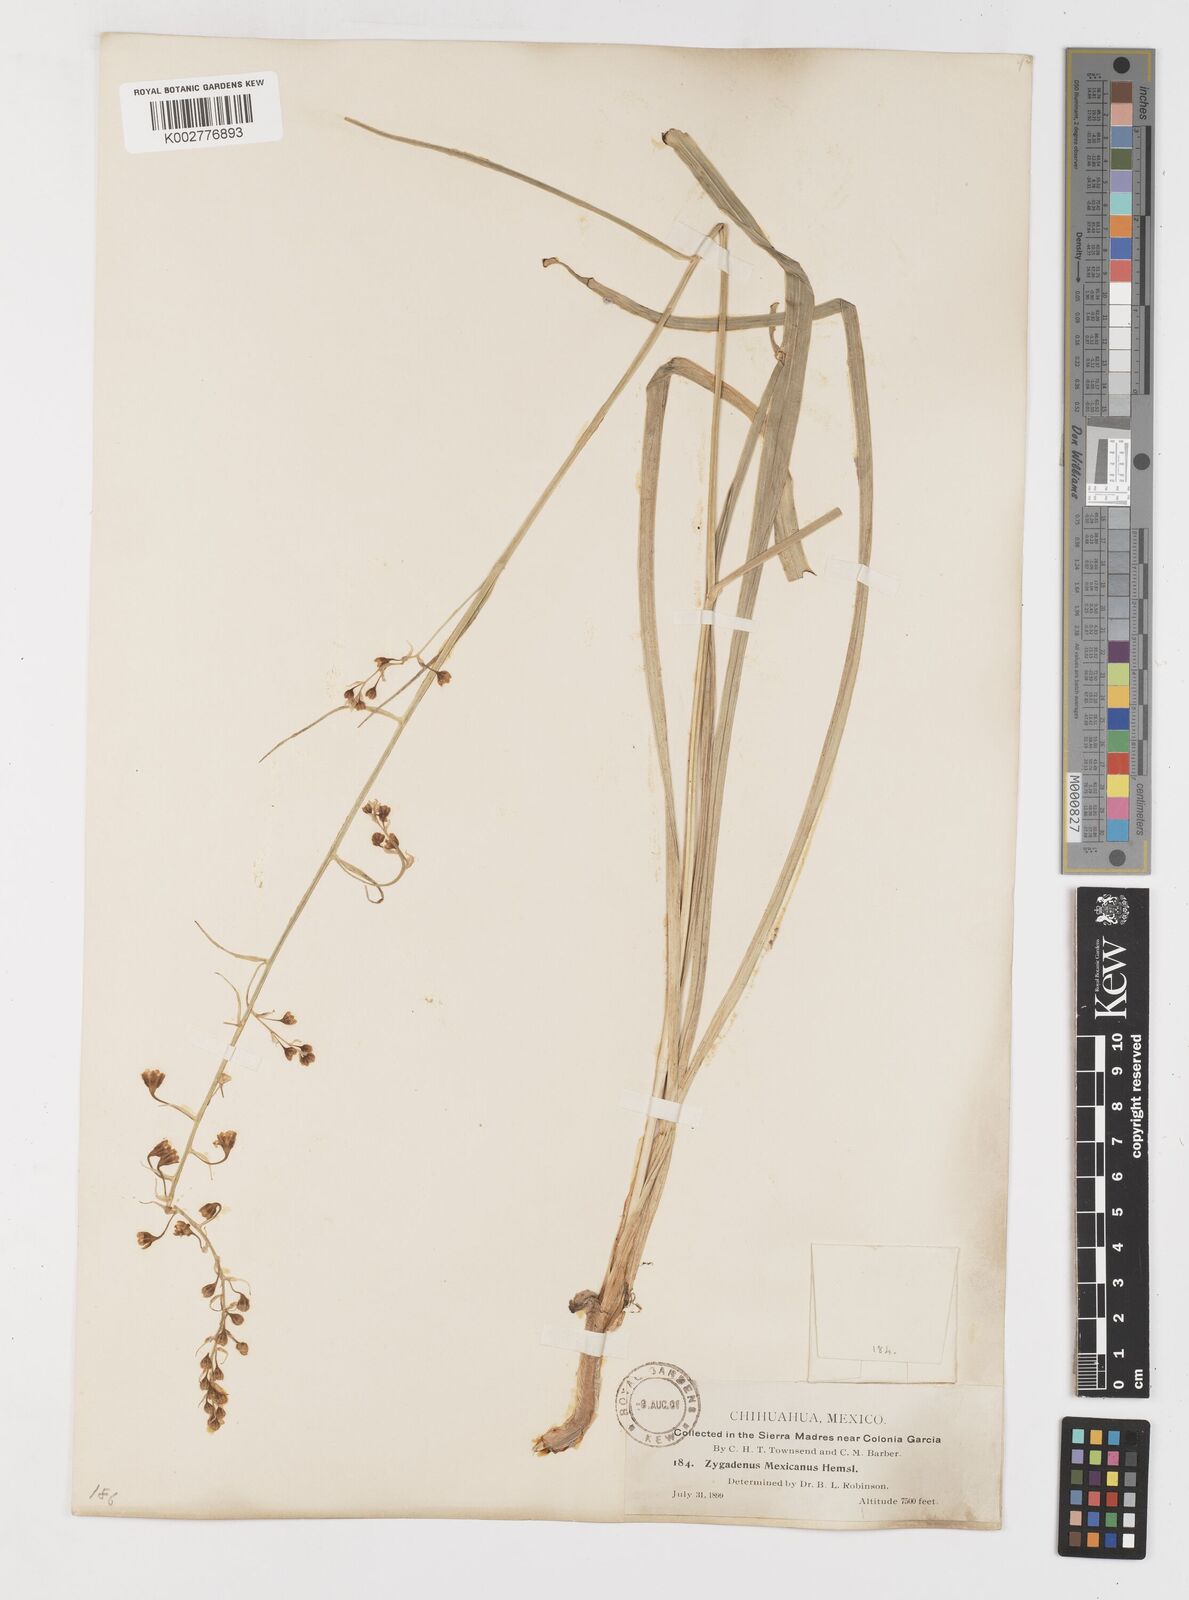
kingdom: Plantae
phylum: Tracheophyta
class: Liliopsida
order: Liliales
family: Melanthiaceae
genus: Anticlea
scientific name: Anticlea virescens
